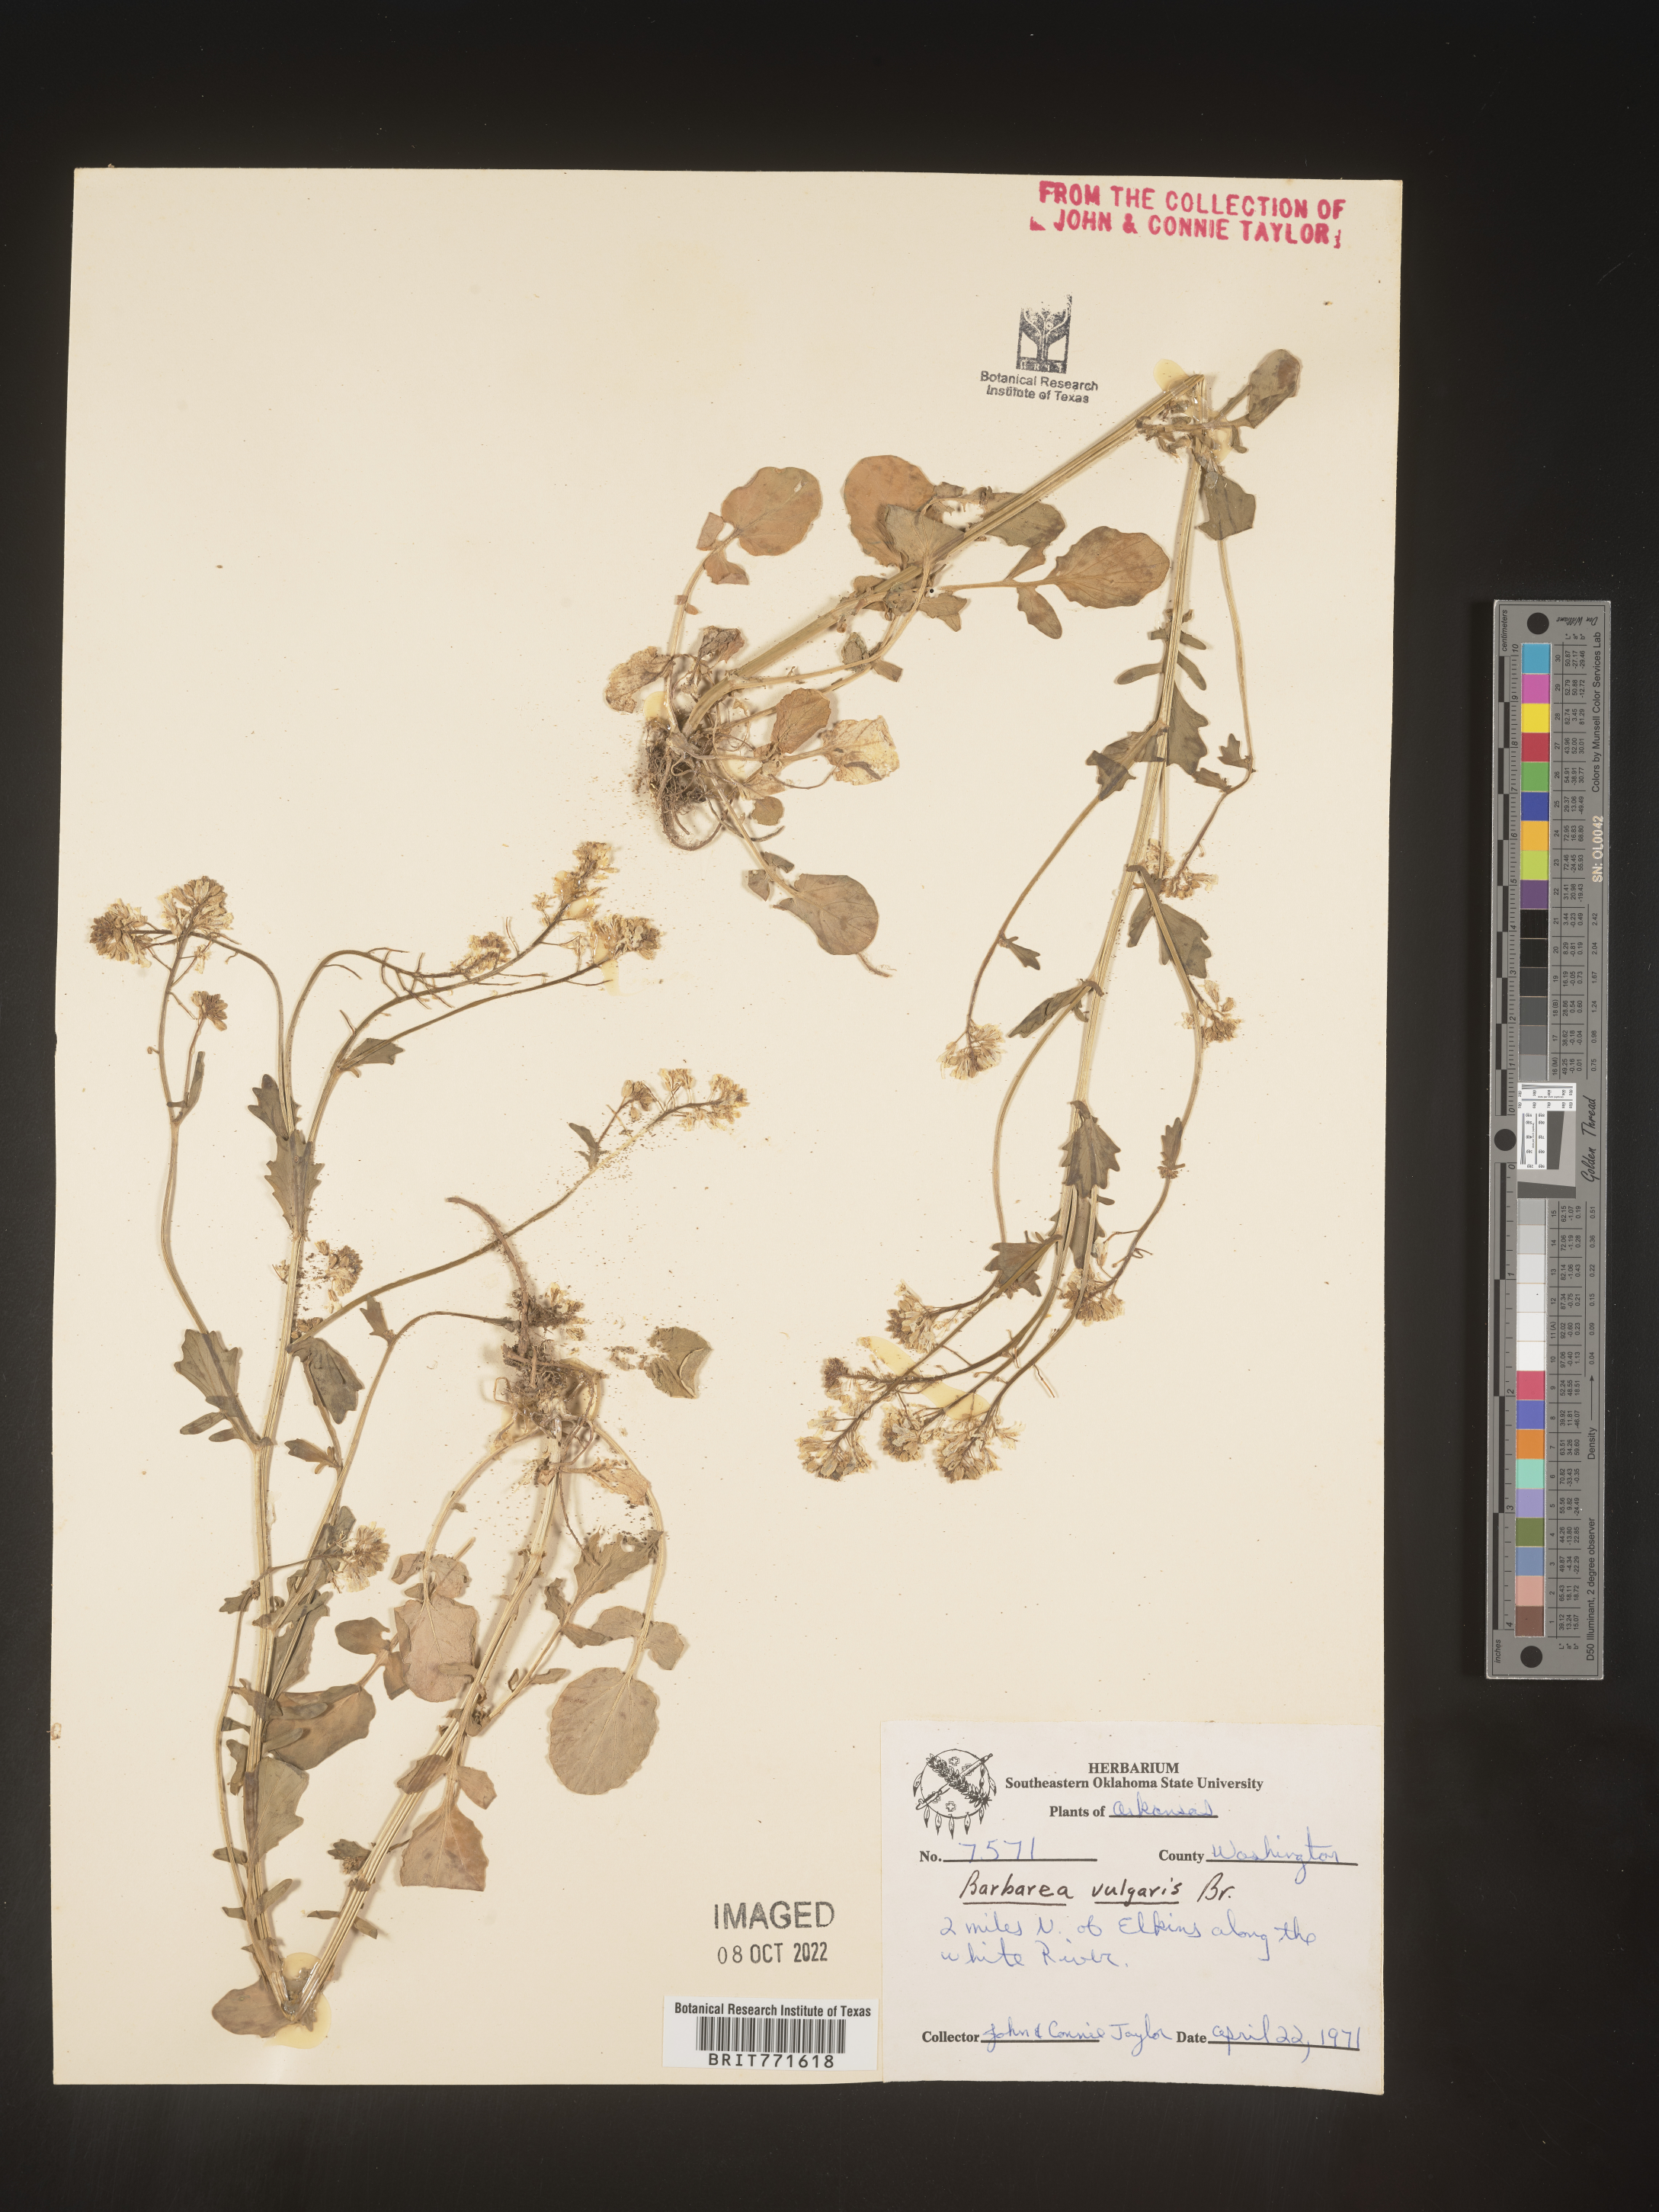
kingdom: Plantae
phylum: Tracheophyta
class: Magnoliopsida
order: Brassicales
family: Brassicaceae
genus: Barbarea
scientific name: Barbarea vulgaris
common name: Cressy-greens
